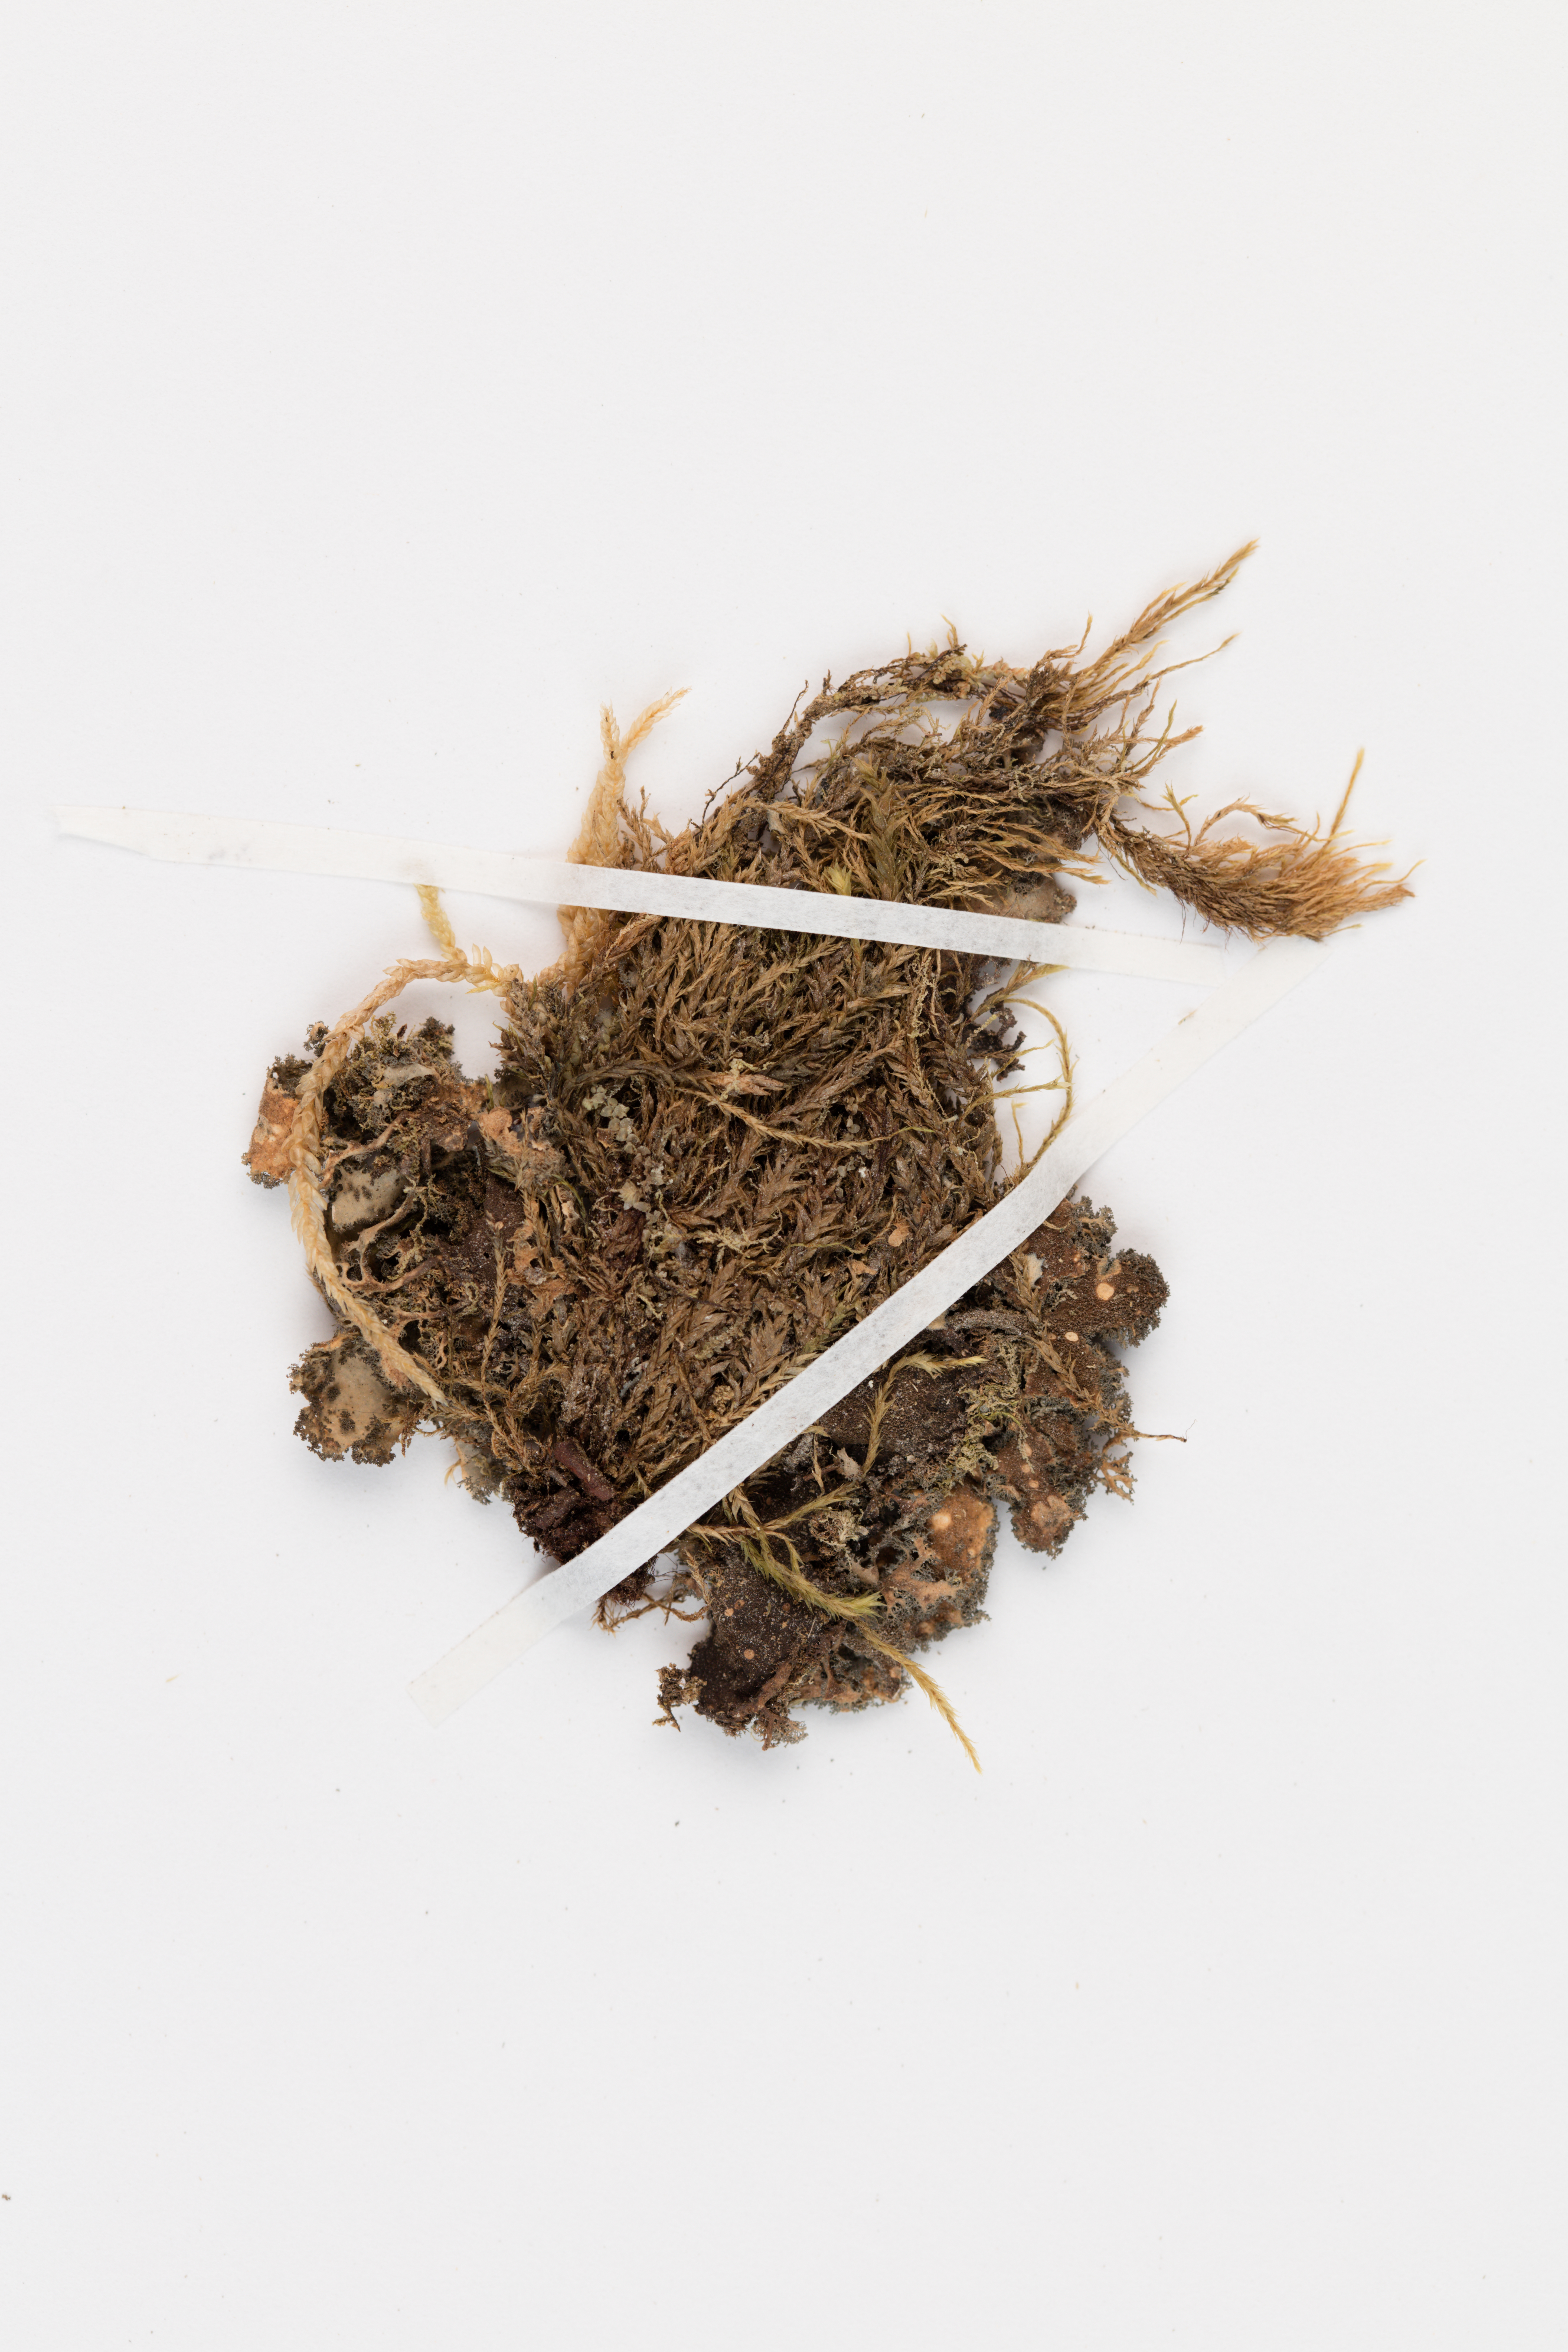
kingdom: Fungi
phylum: Ascomycota
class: Lecanoromycetes
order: Peltigerales
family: Lobariaceae
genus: Sticta
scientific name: Sticta caliginosa
